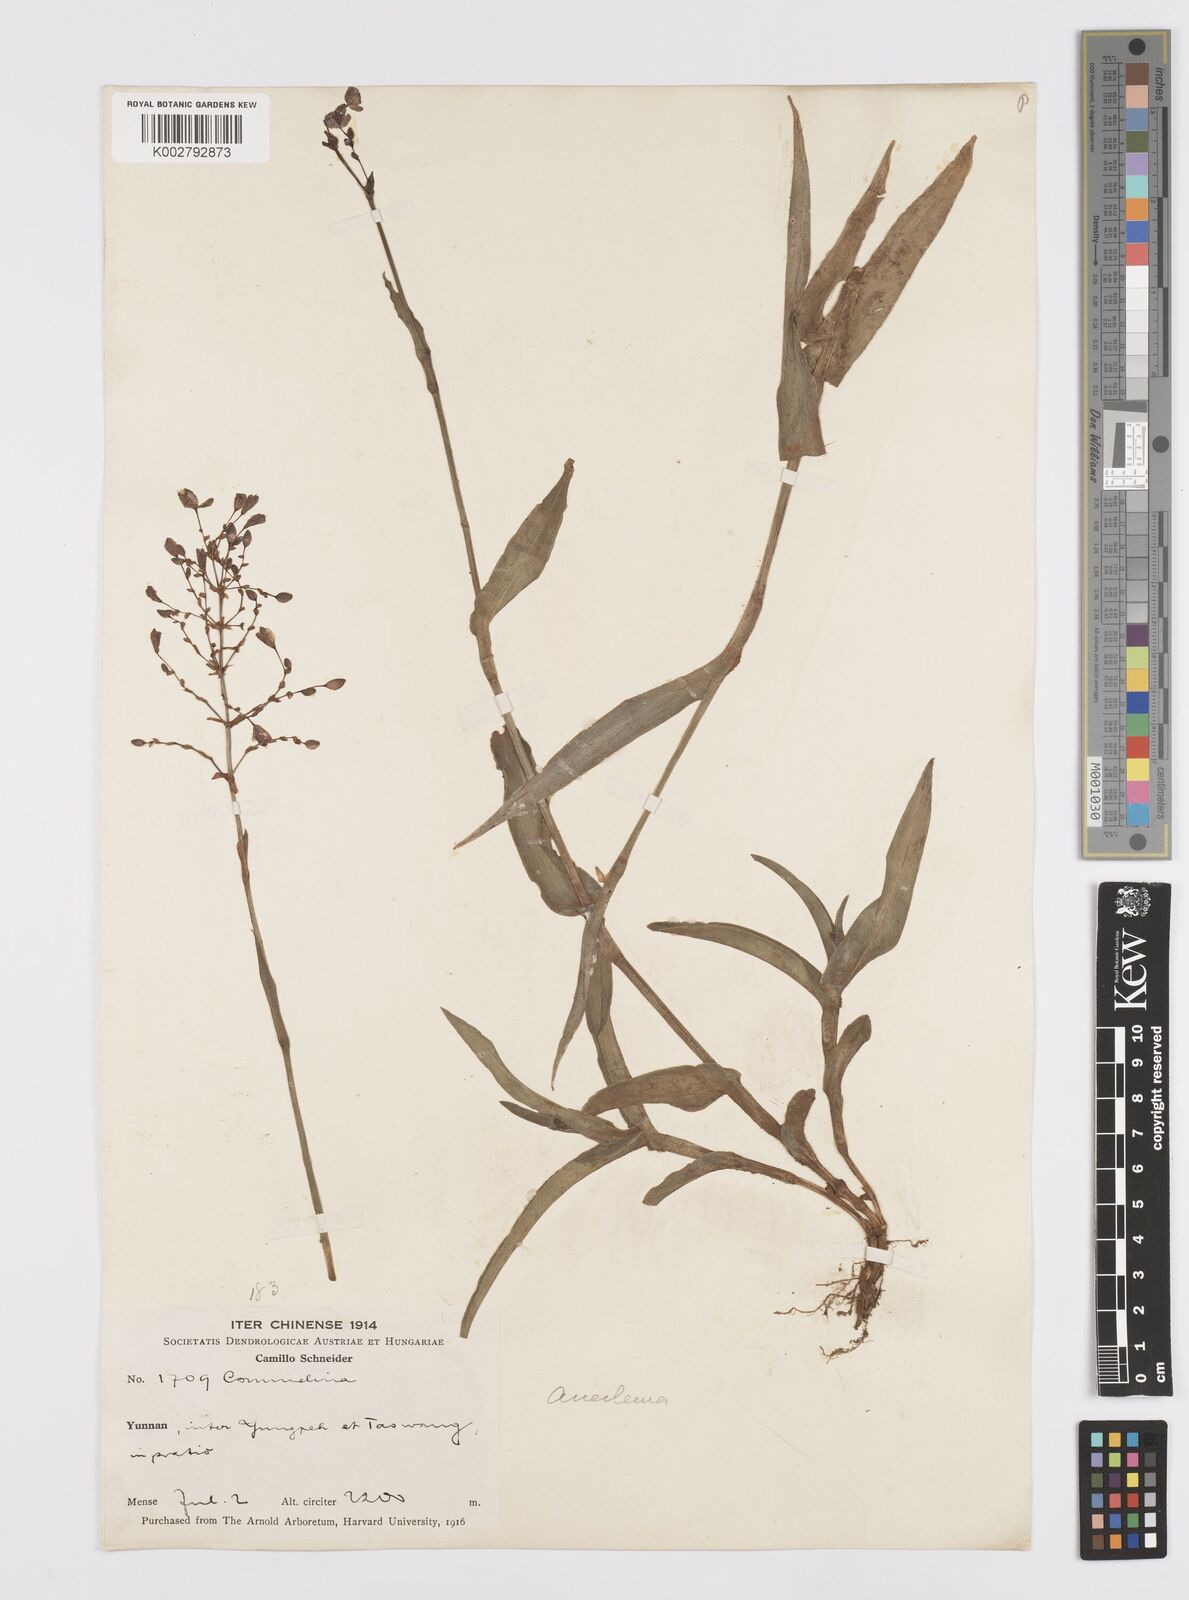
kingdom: Plantae
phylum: Tracheophyta
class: Liliopsida
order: Commelinales
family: Commelinaceae
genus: Murdannia
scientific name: Murdannia
